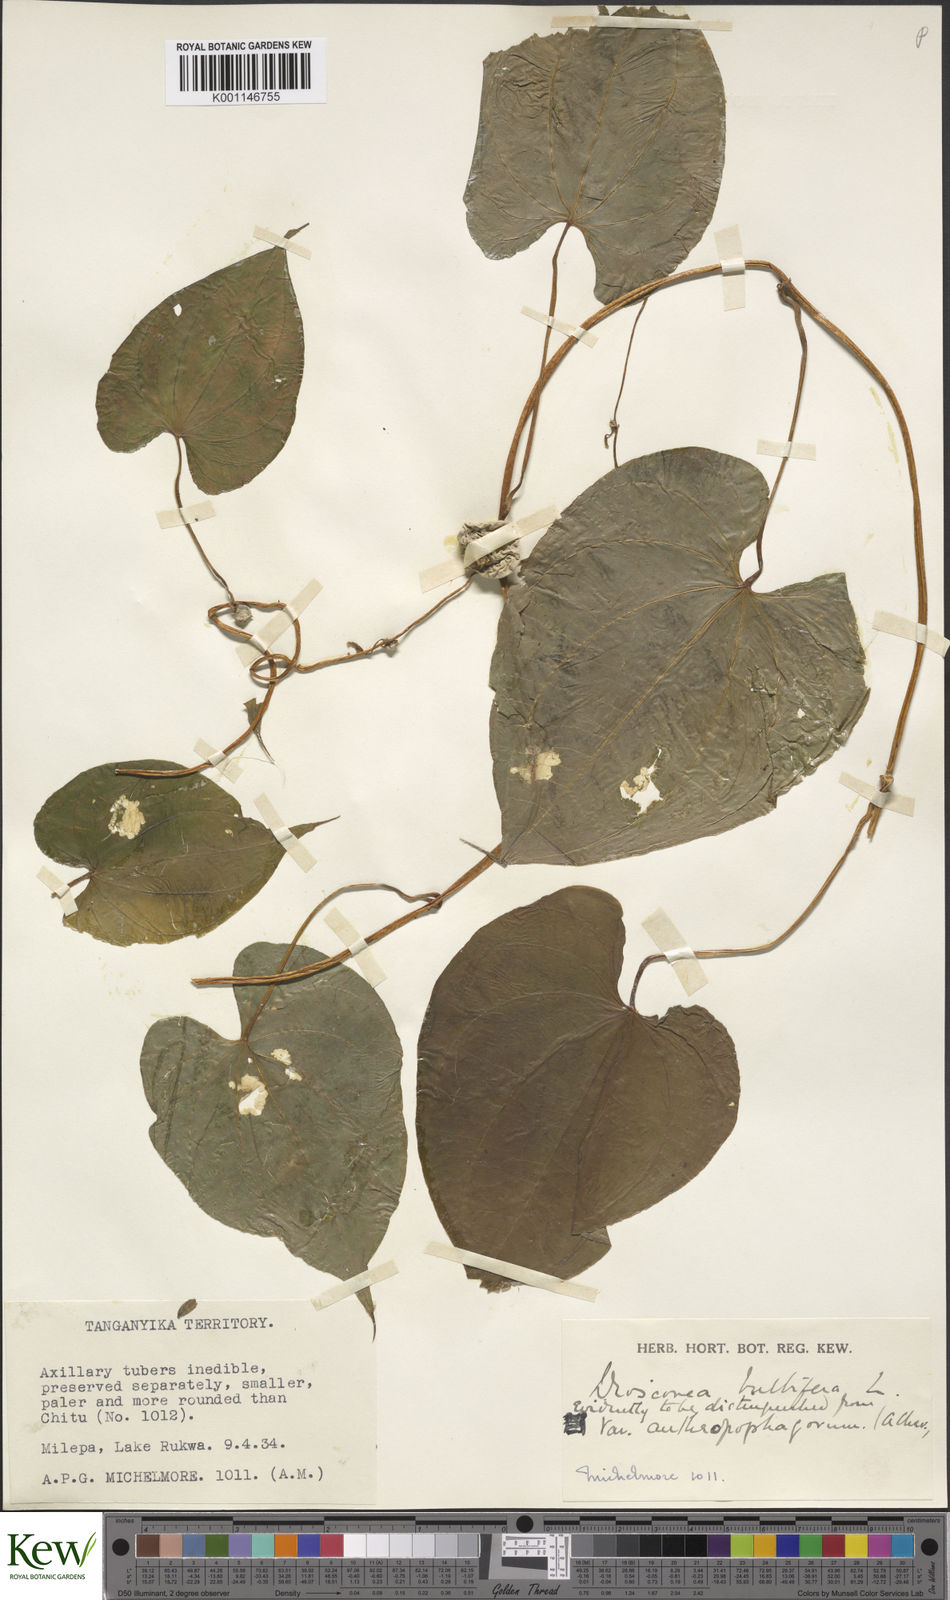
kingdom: Plantae
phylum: Tracheophyta
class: Liliopsida
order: Dioscoreales
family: Dioscoreaceae
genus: Dioscorea
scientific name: Dioscorea bulbifera
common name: Air yam
